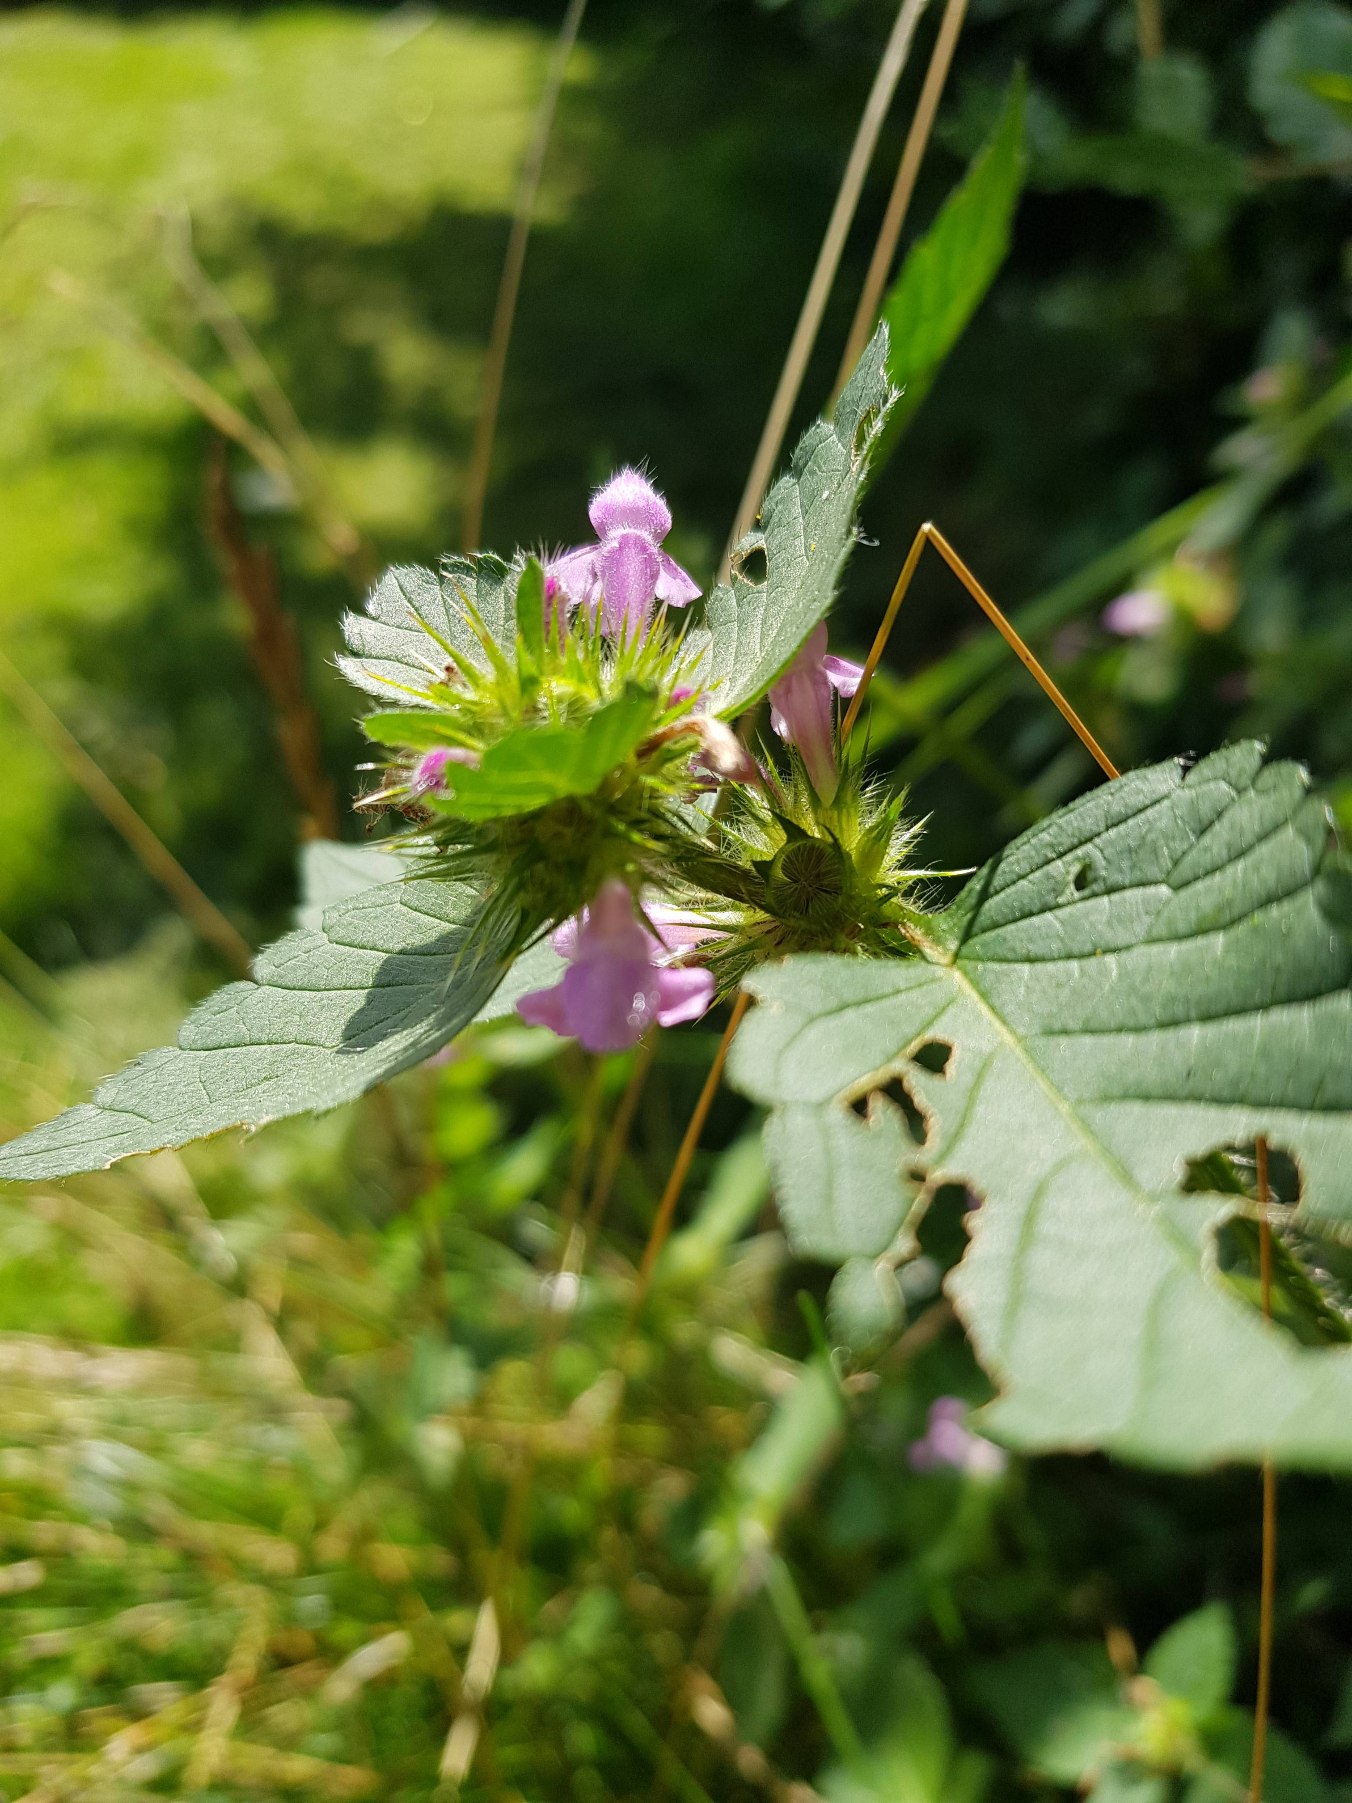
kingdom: Plantae
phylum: Tracheophyta
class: Magnoliopsida
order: Lamiales
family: Lamiaceae
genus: Galeopsis
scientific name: Galeopsis tetrahit
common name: Almindelig hanekro
